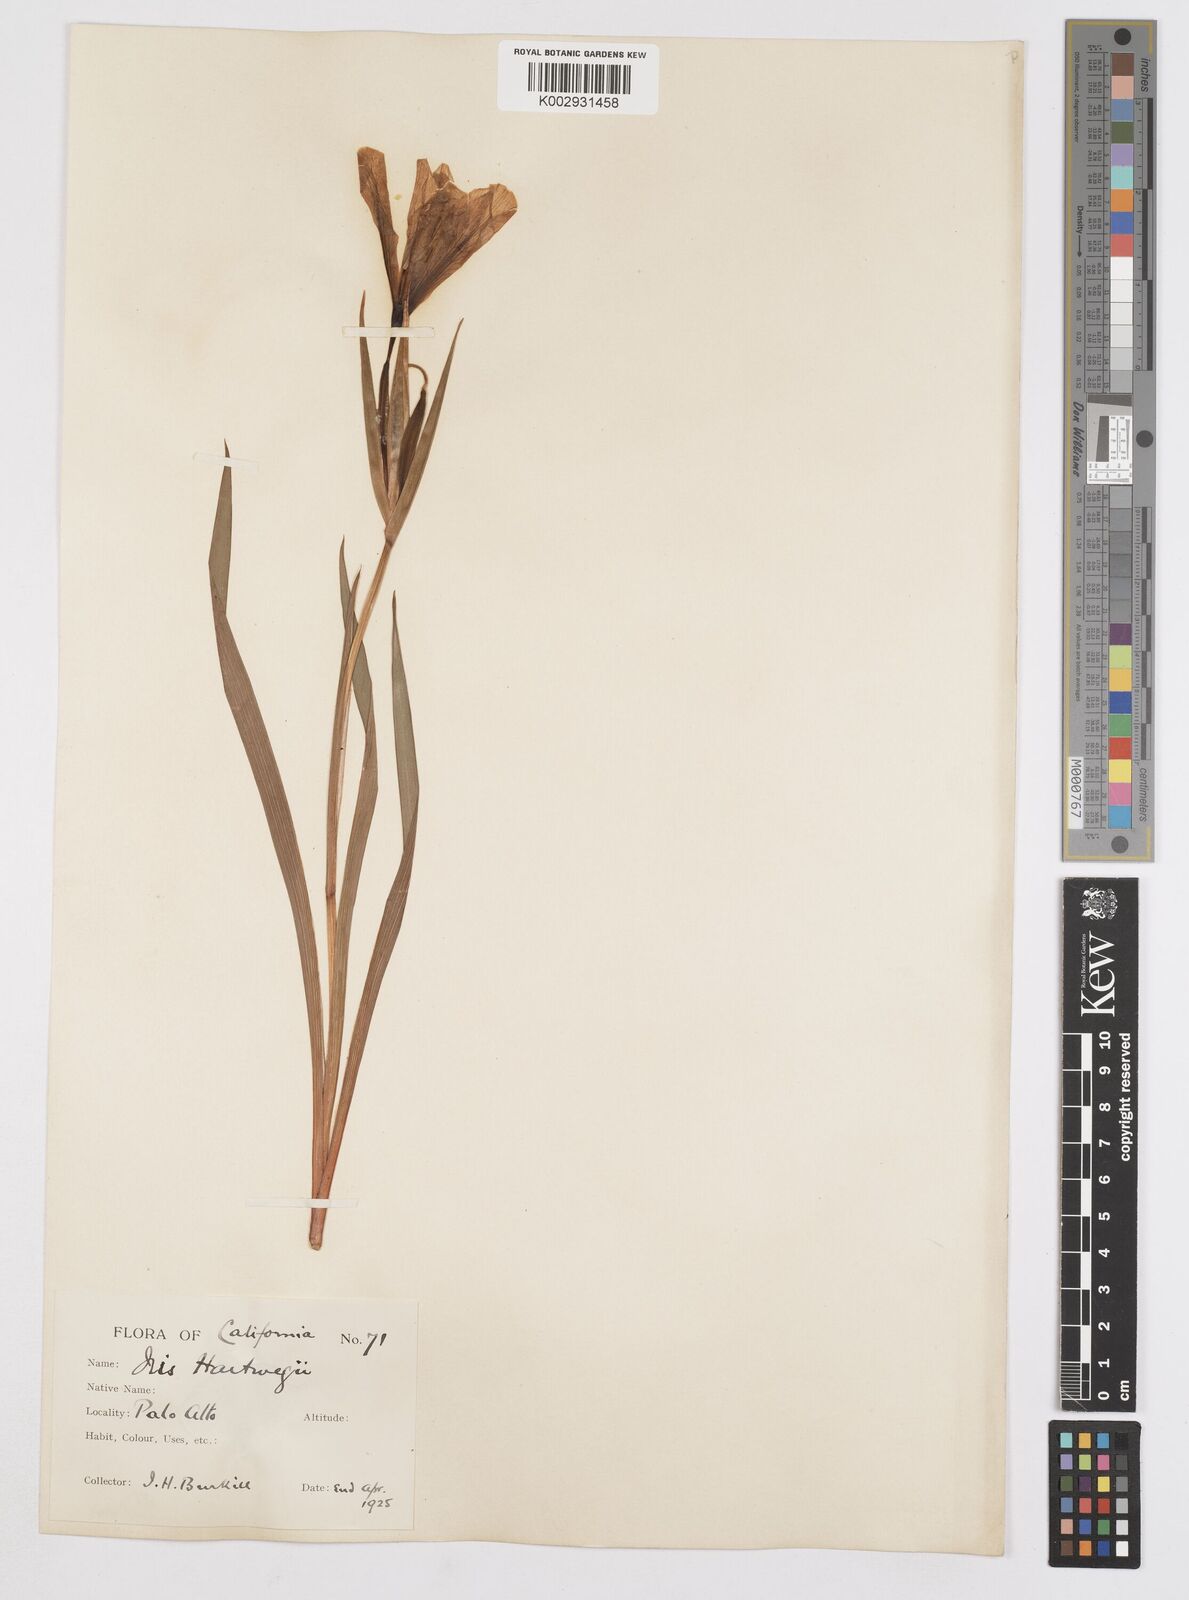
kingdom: Plantae
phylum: Tracheophyta
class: Liliopsida
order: Asparagales
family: Iridaceae
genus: Iris
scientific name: Iris hartwegii
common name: Sierra iris
